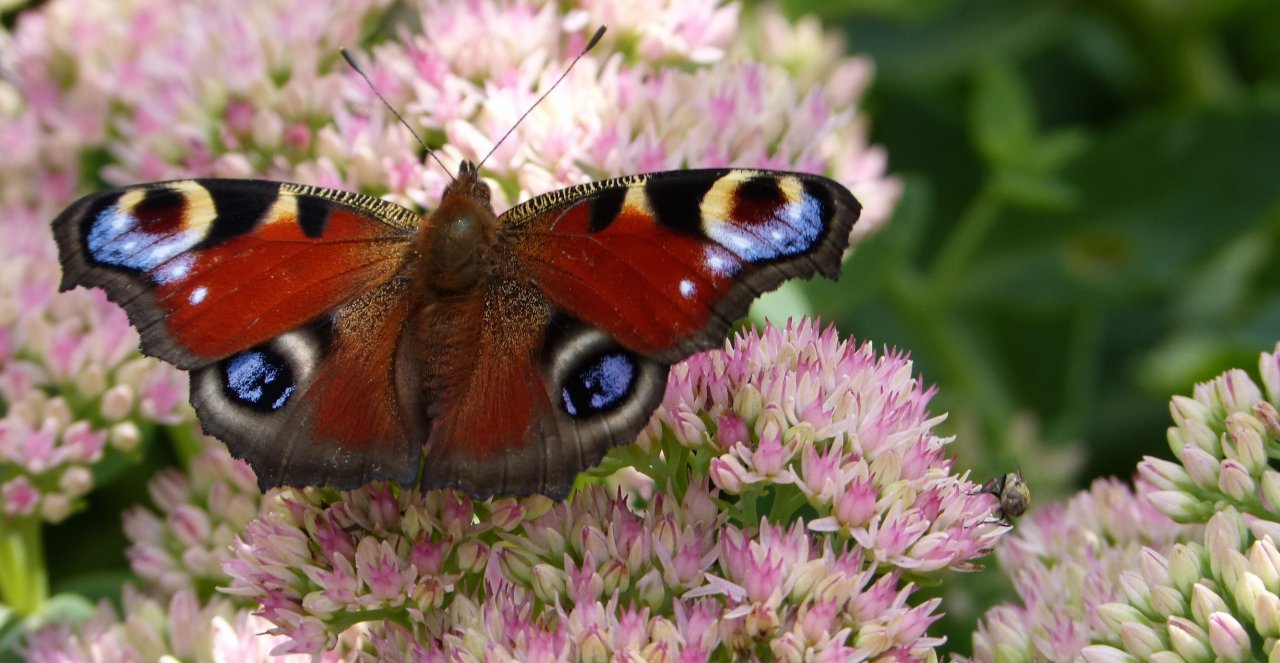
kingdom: Animalia
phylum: Arthropoda
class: Insecta
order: Lepidoptera
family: Nymphalidae
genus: Aglais
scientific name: Aglais io
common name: European Peacock
